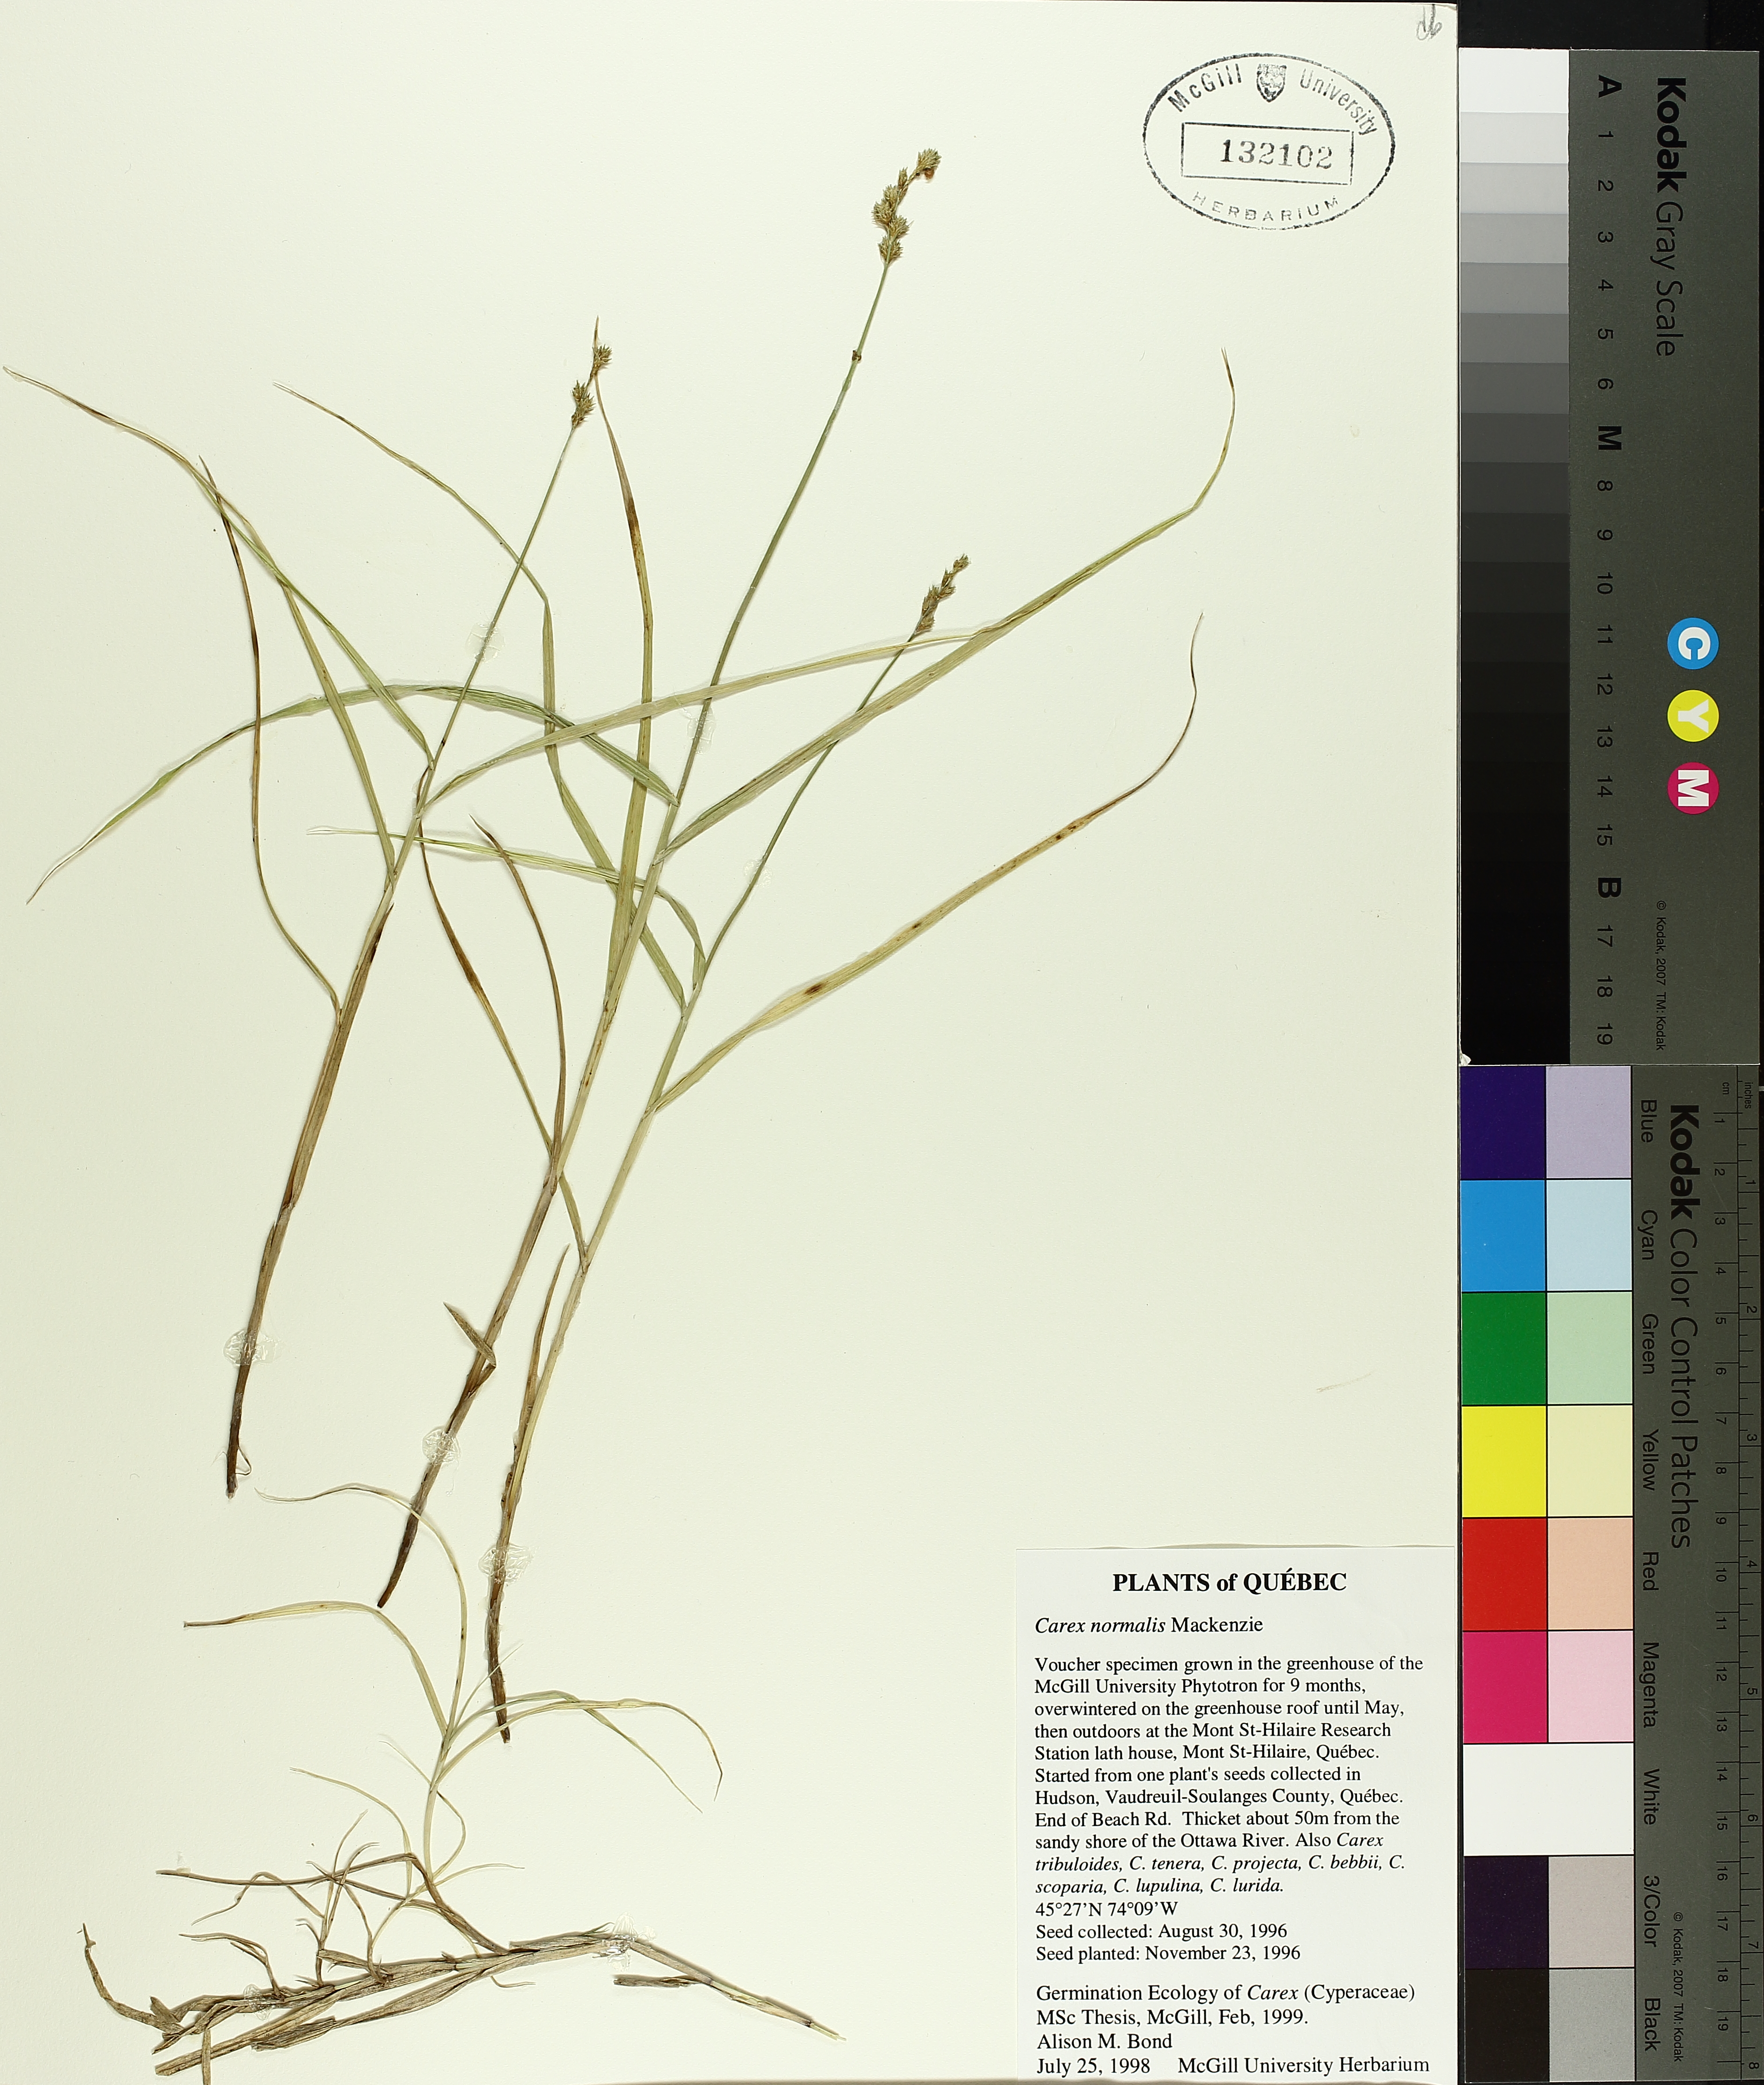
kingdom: Plantae
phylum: Tracheophyta
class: Liliopsida
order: Poales
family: Cyperaceae
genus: Carex
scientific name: Carex normalis
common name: Greater straw sedge
